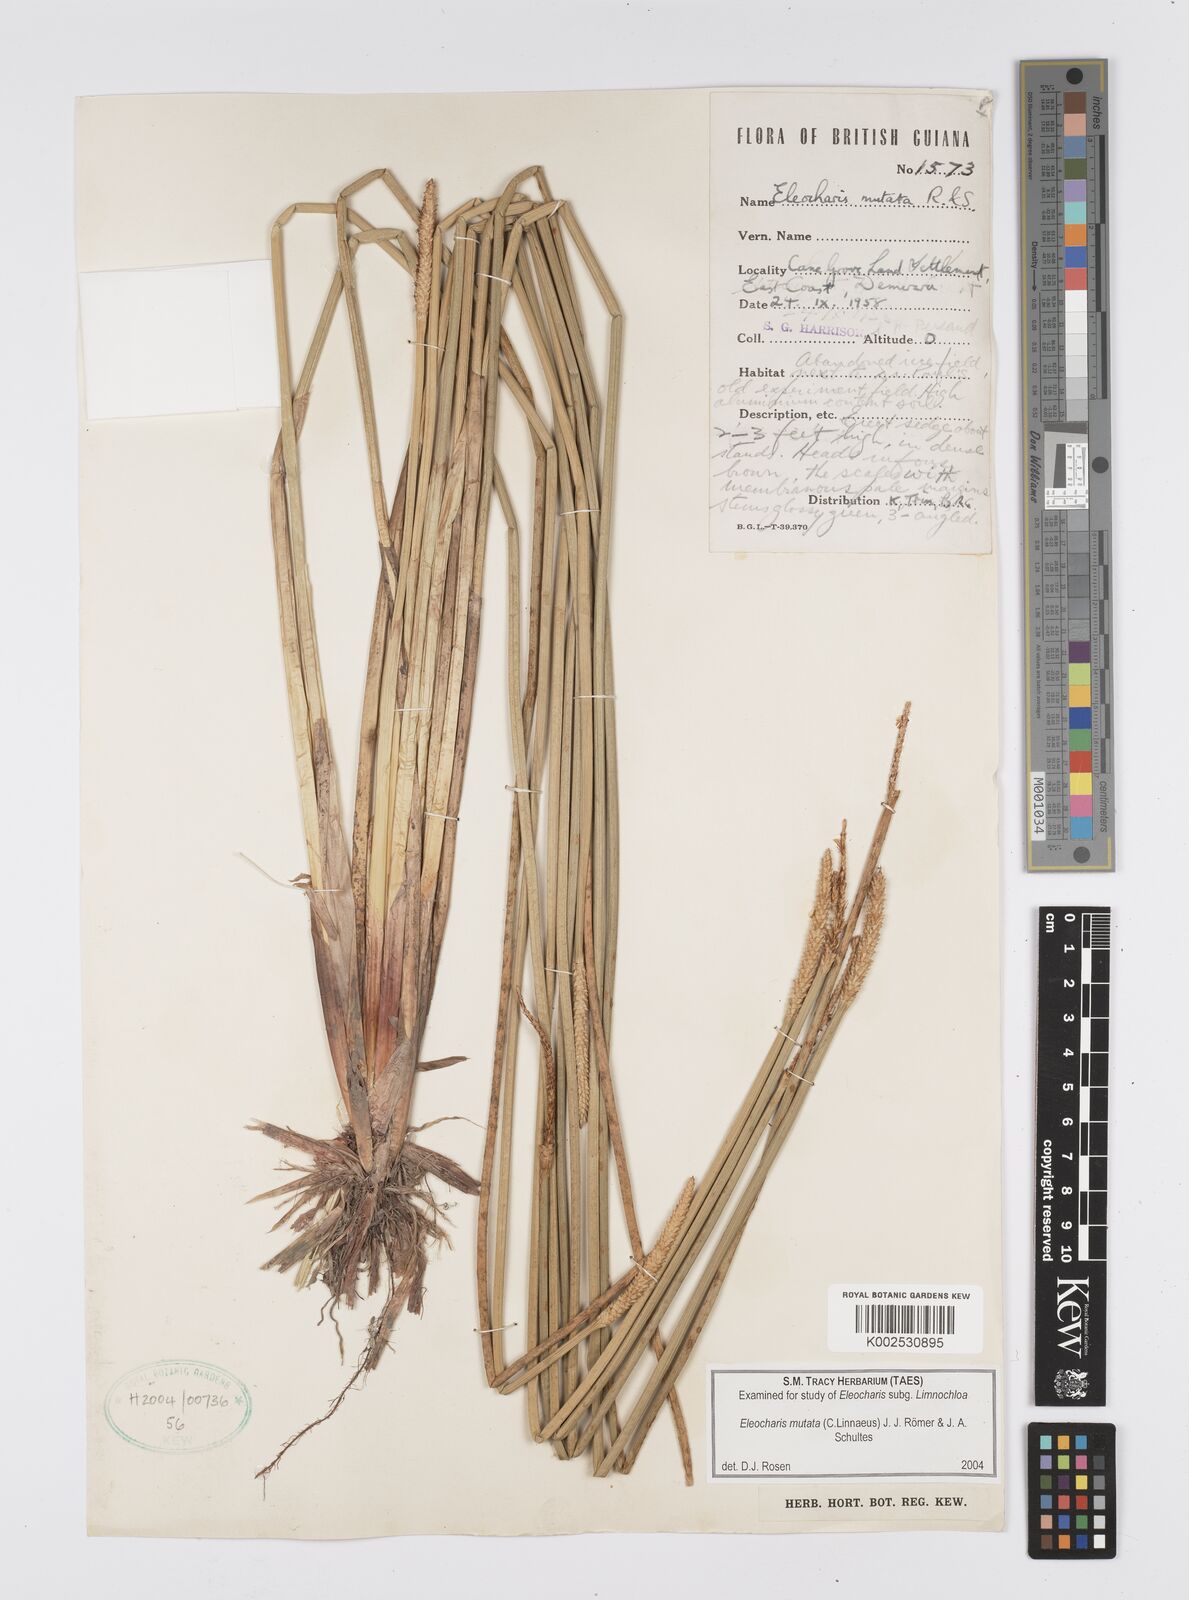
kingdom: Plantae
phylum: Tracheophyta
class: Liliopsida
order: Poales
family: Cyperaceae
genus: Eleocharis
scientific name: Eleocharis mutata
